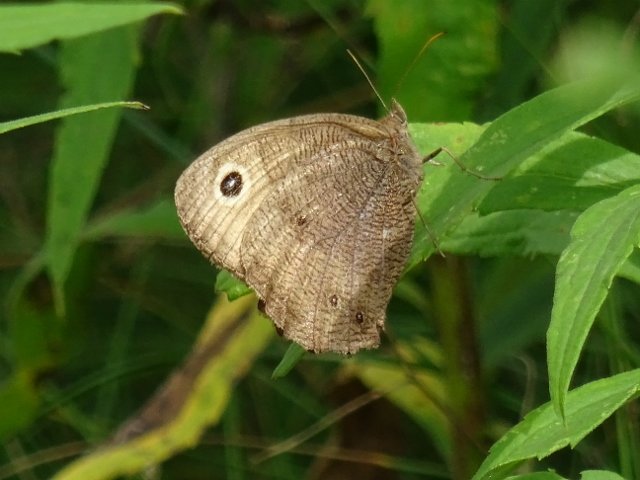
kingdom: Animalia
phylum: Arthropoda
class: Insecta
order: Lepidoptera
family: Nymphalidae
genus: Cercyonis
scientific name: Cercyonis pegala
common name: Common Wood-Nymph
